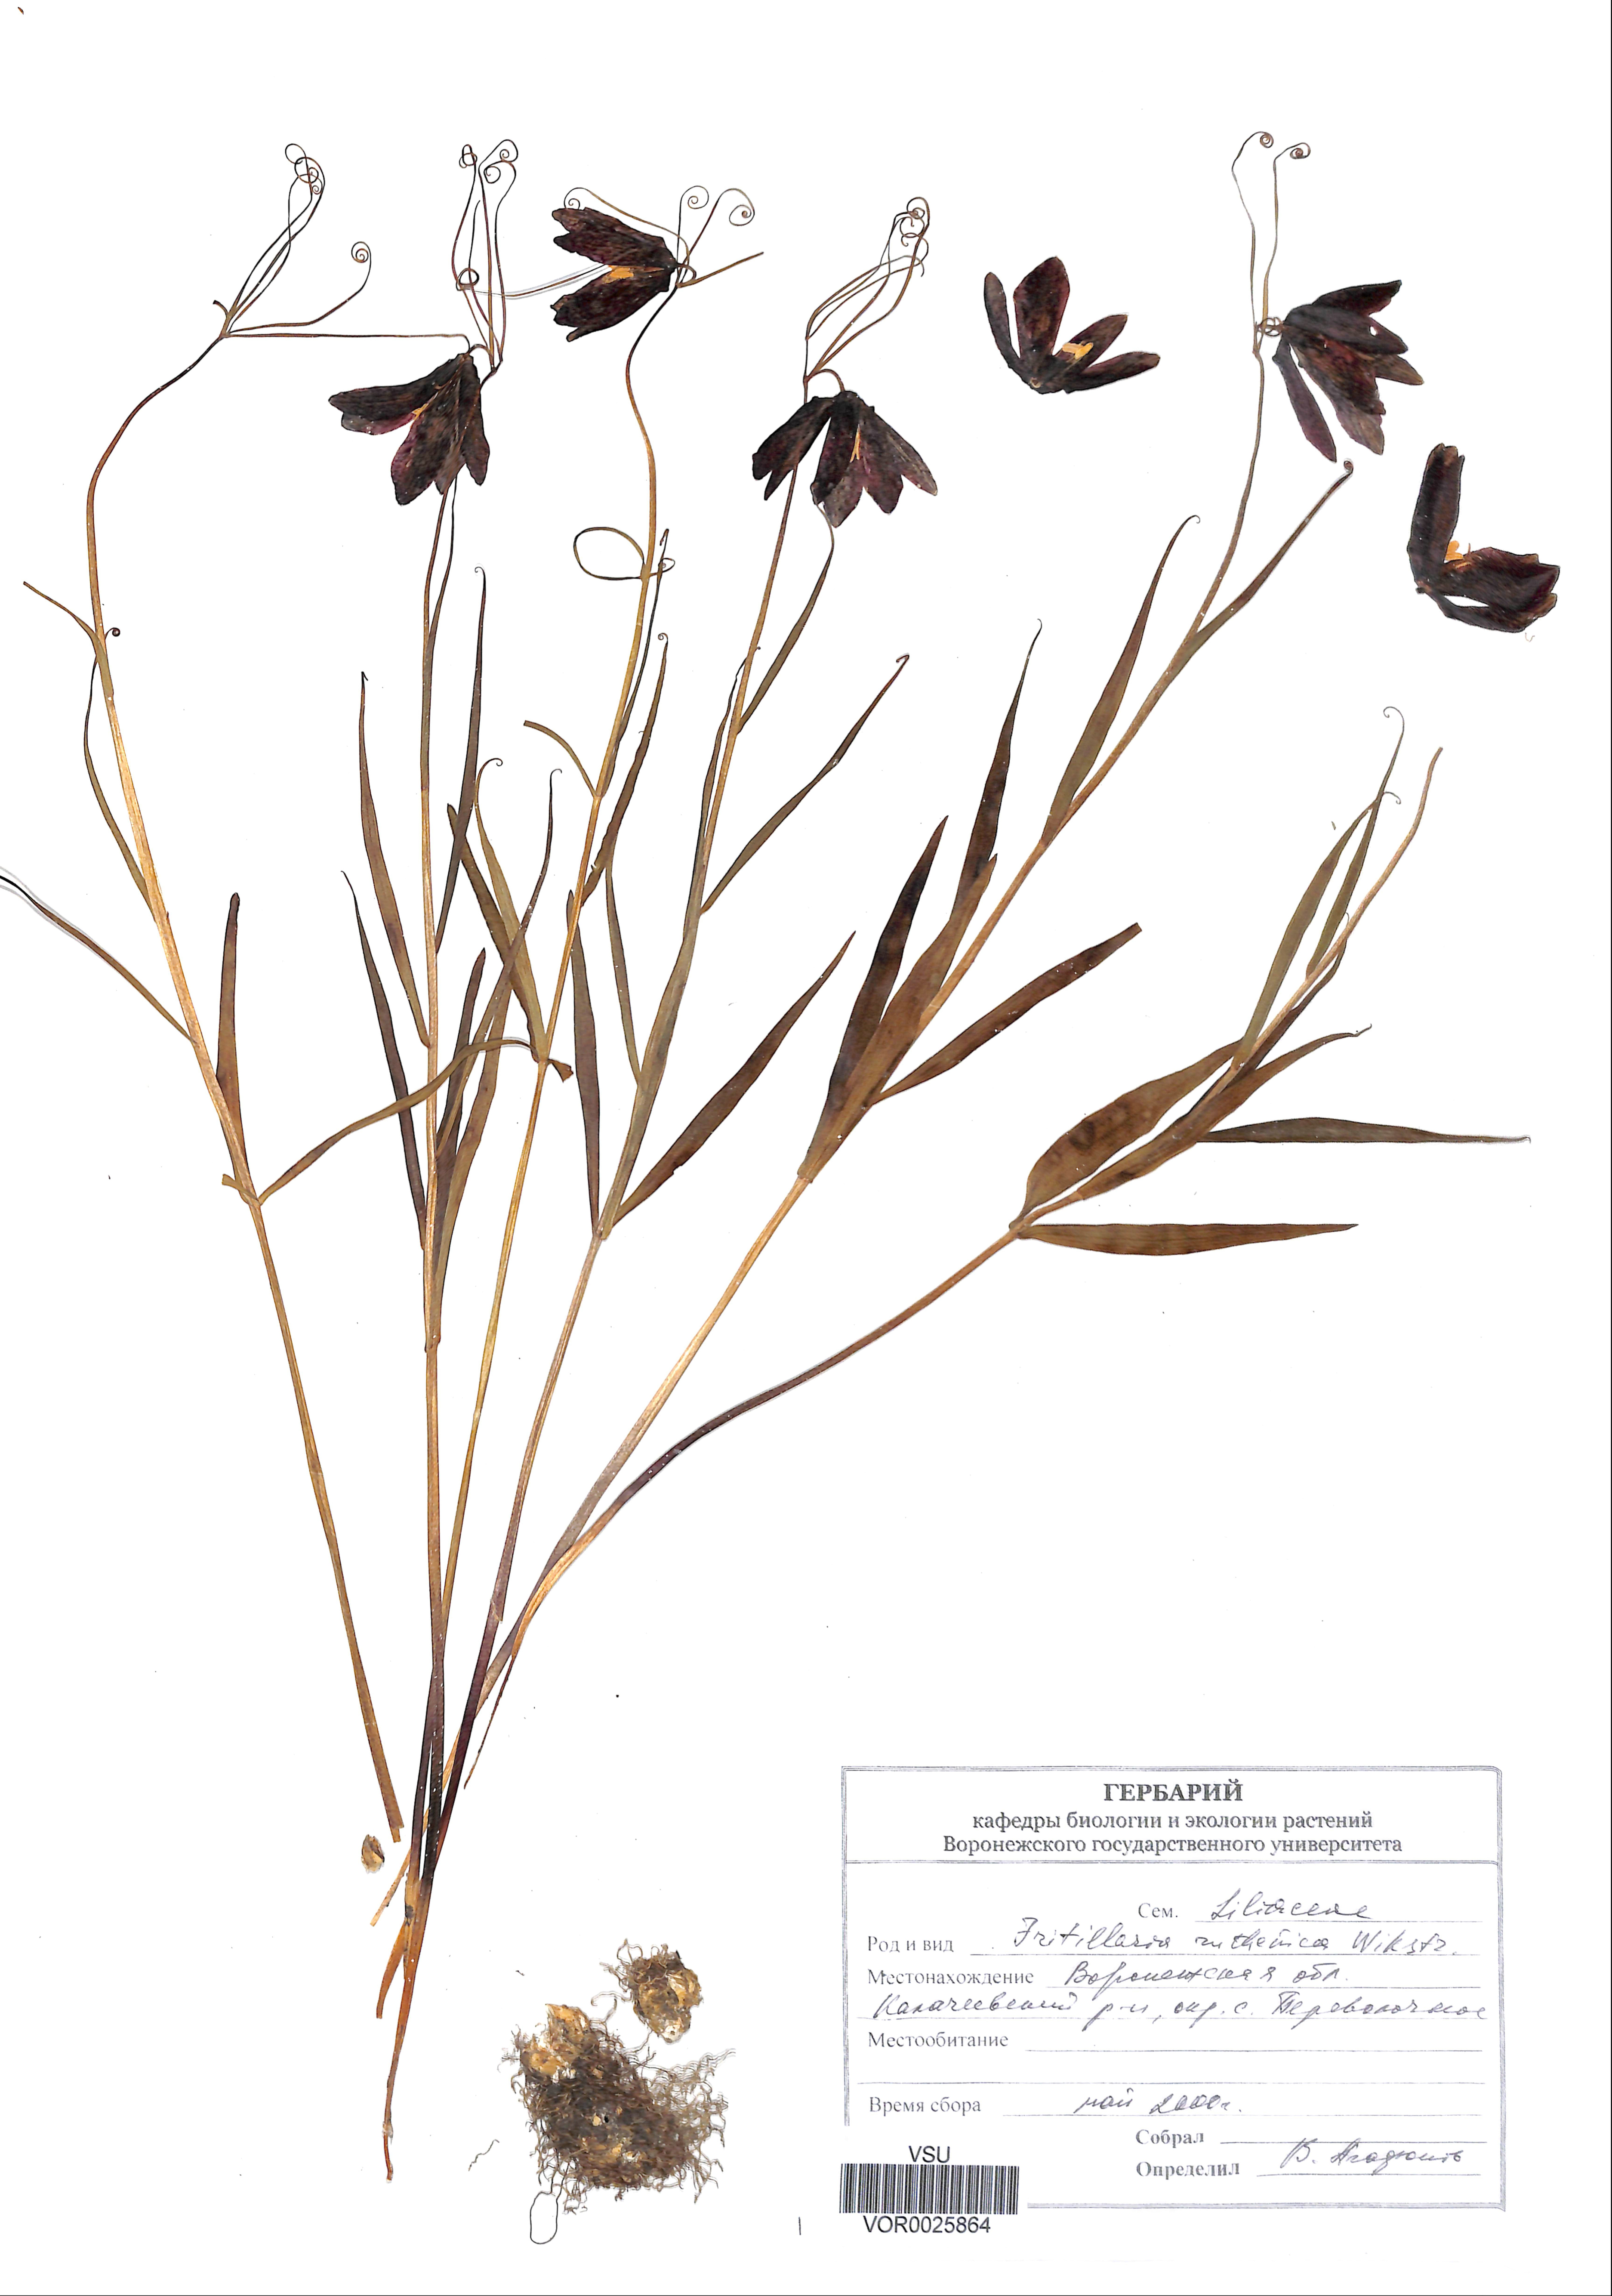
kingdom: Plantae
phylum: Tracheophyta
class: Liliopsida
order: Liliales
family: Liliaceae
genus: Fritillaria
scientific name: Fritillaria ruthenica
